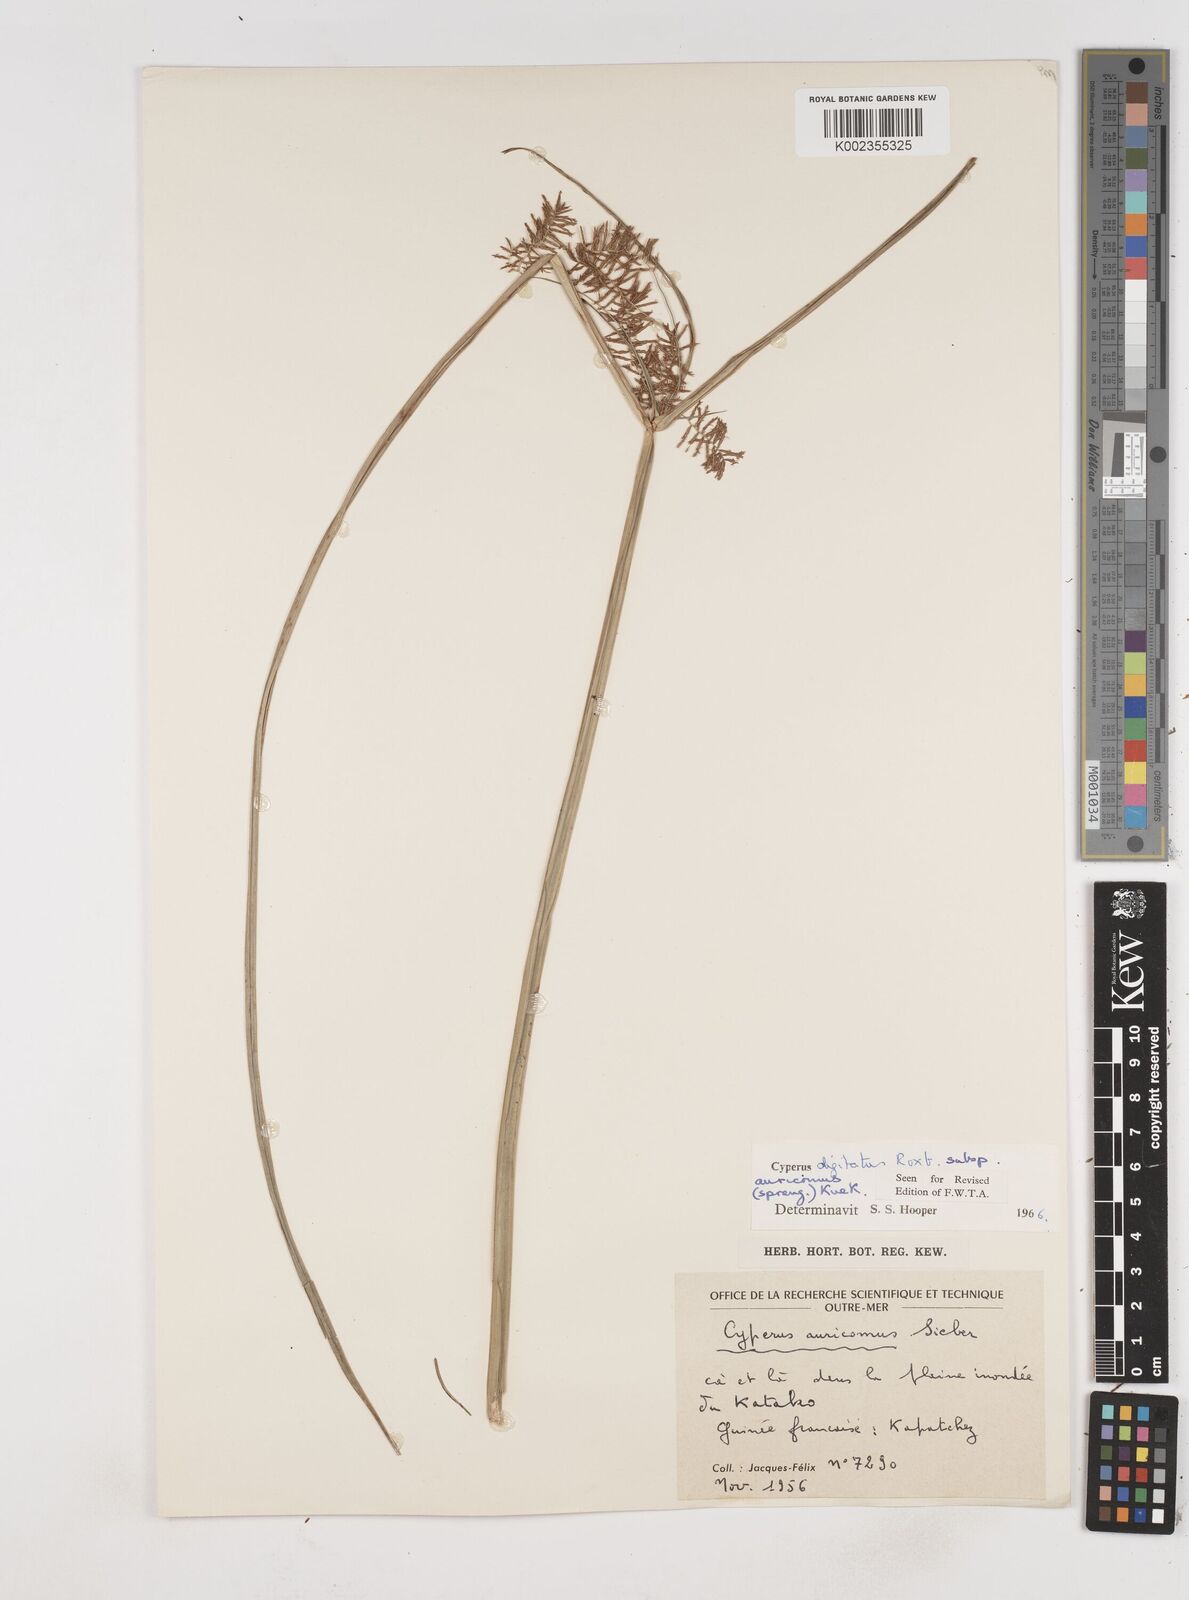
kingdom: Plantae
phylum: Tracheophyta
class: Liliopsida
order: Poales
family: Cyperaceae
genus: Cyperus
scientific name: Cyperus digitatus
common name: Finger flatsedge
